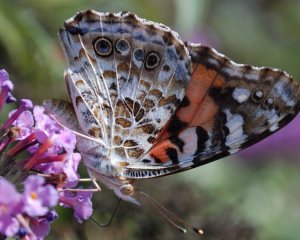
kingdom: Animalia
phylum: Arthropoda
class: Insecta
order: Lepidoptera
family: Nymphalidae
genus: Vanessa
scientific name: Vanessa cardui
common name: Painted Lady
